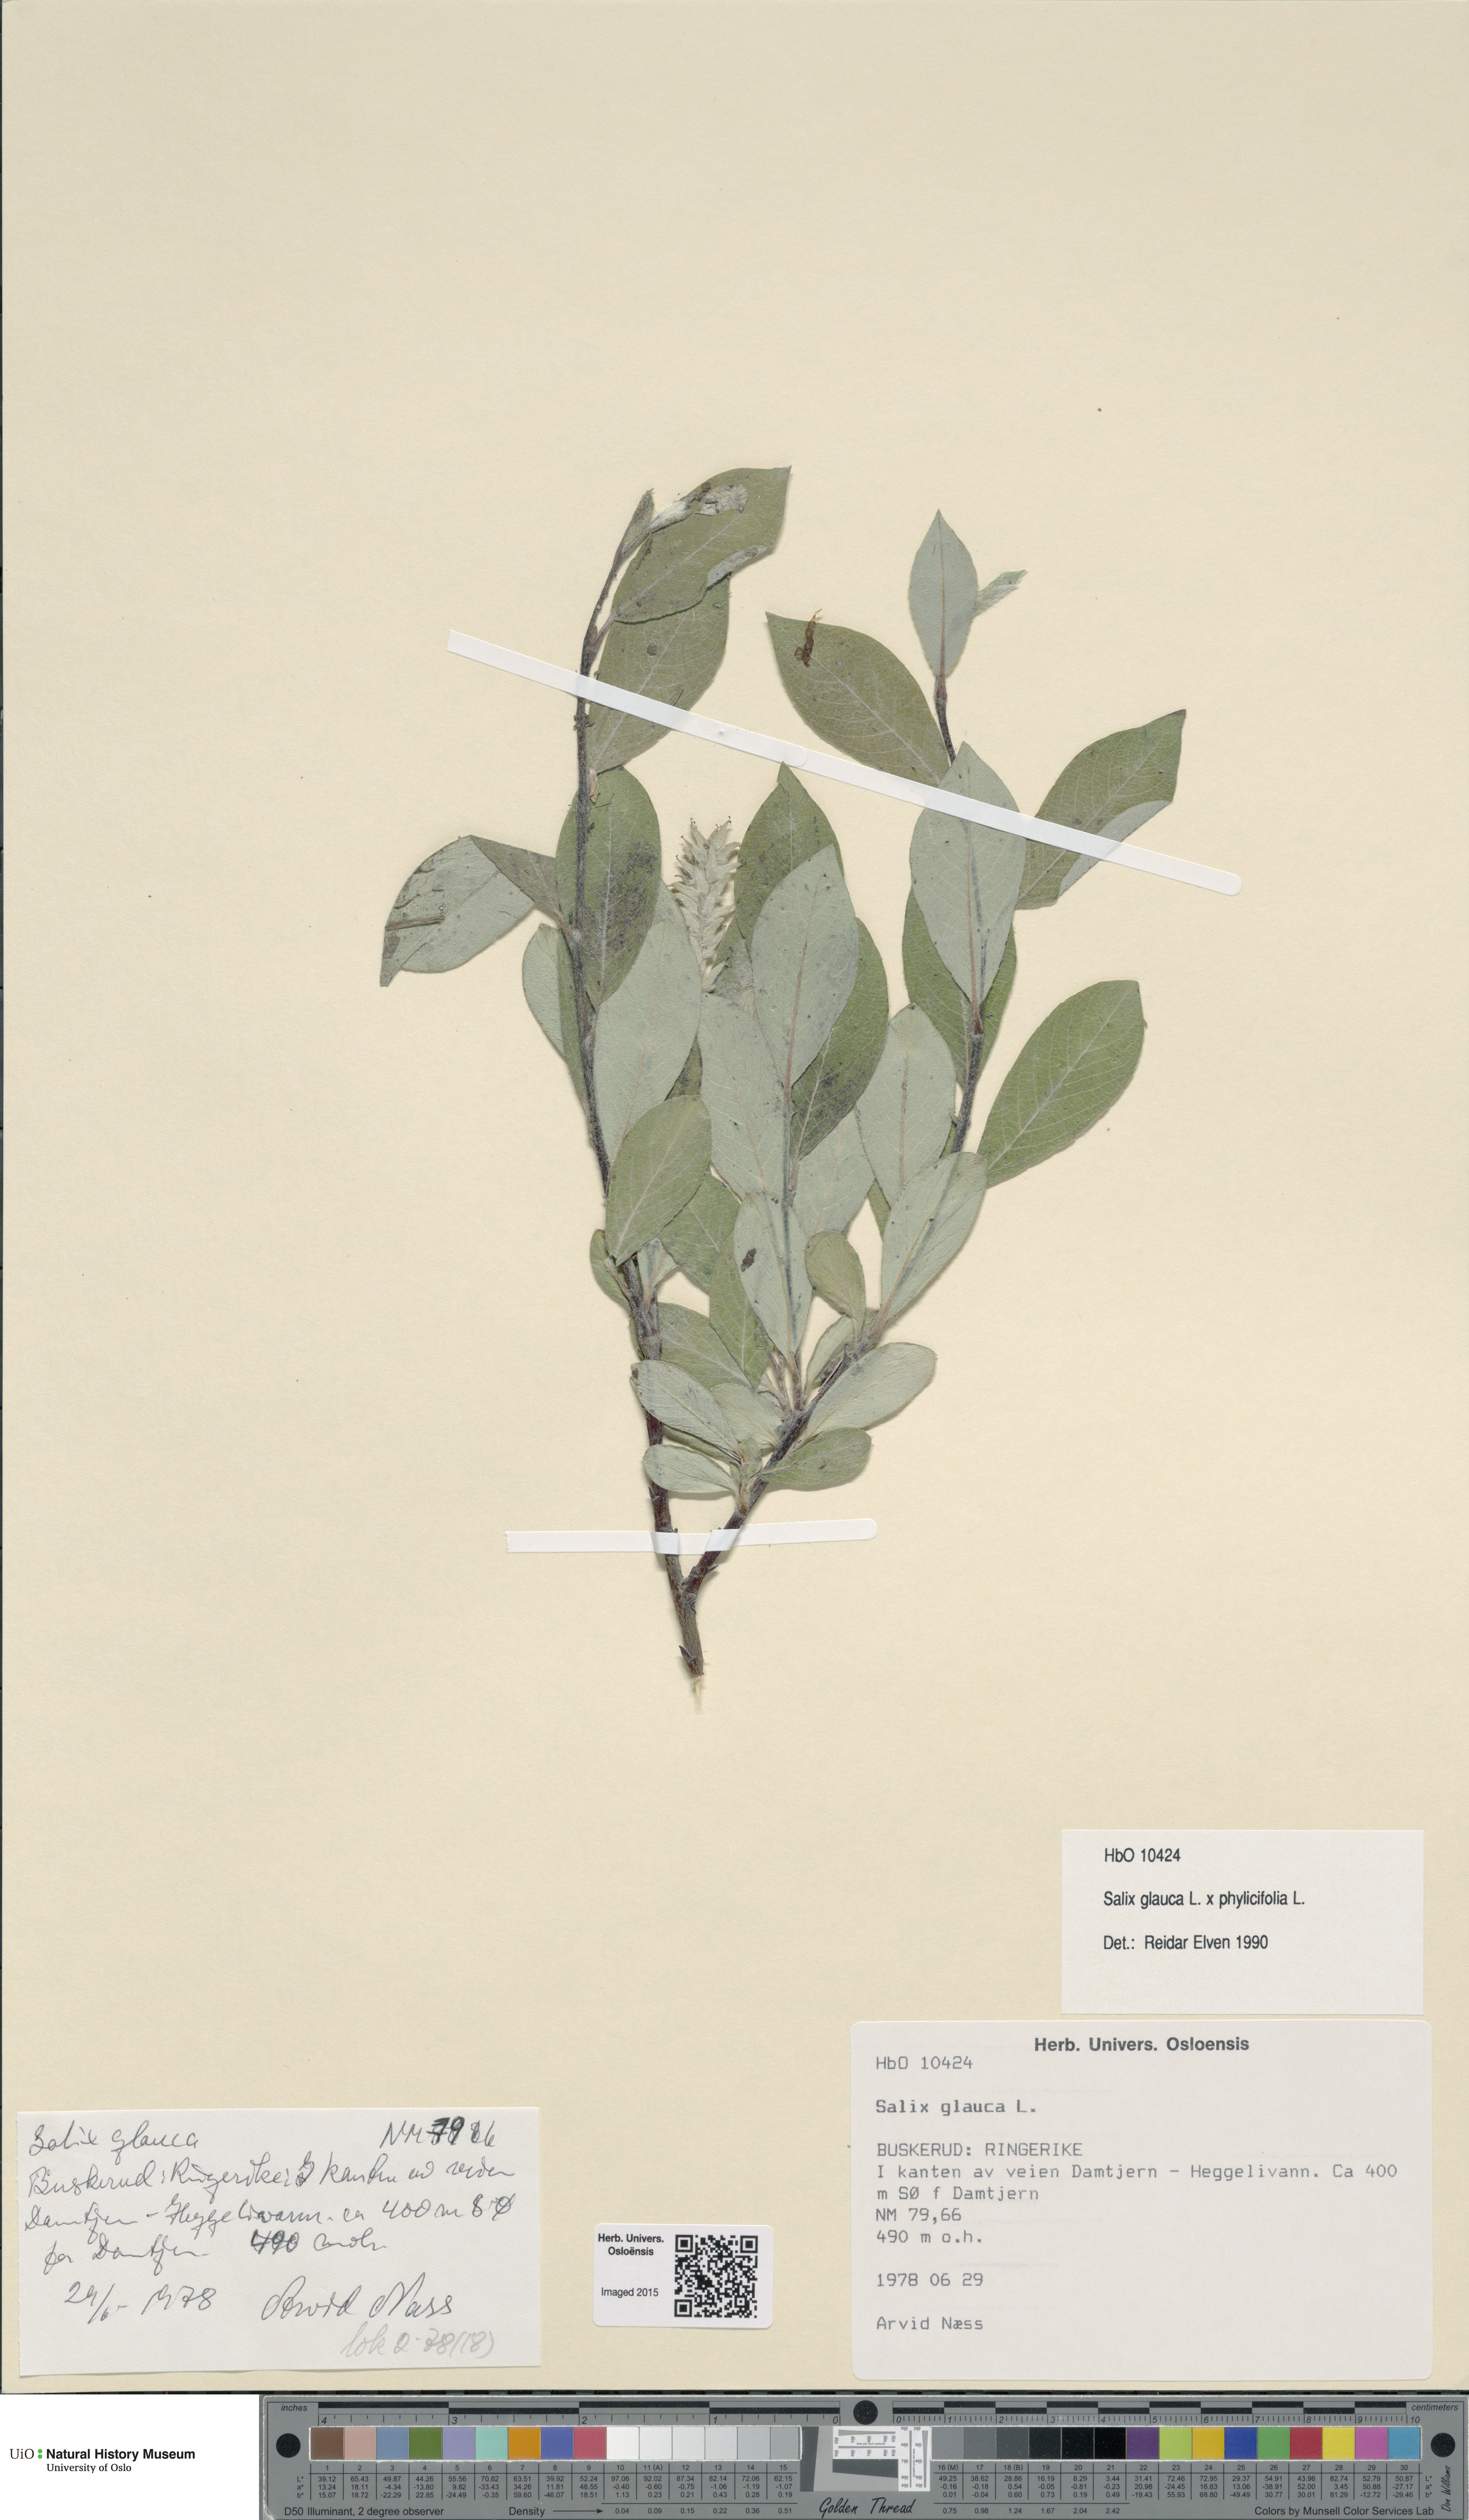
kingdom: Plantae
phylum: Tracheophyta
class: Magnoliopsida
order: Malpighiales
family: Salicaceae
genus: Salix
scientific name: Salix
